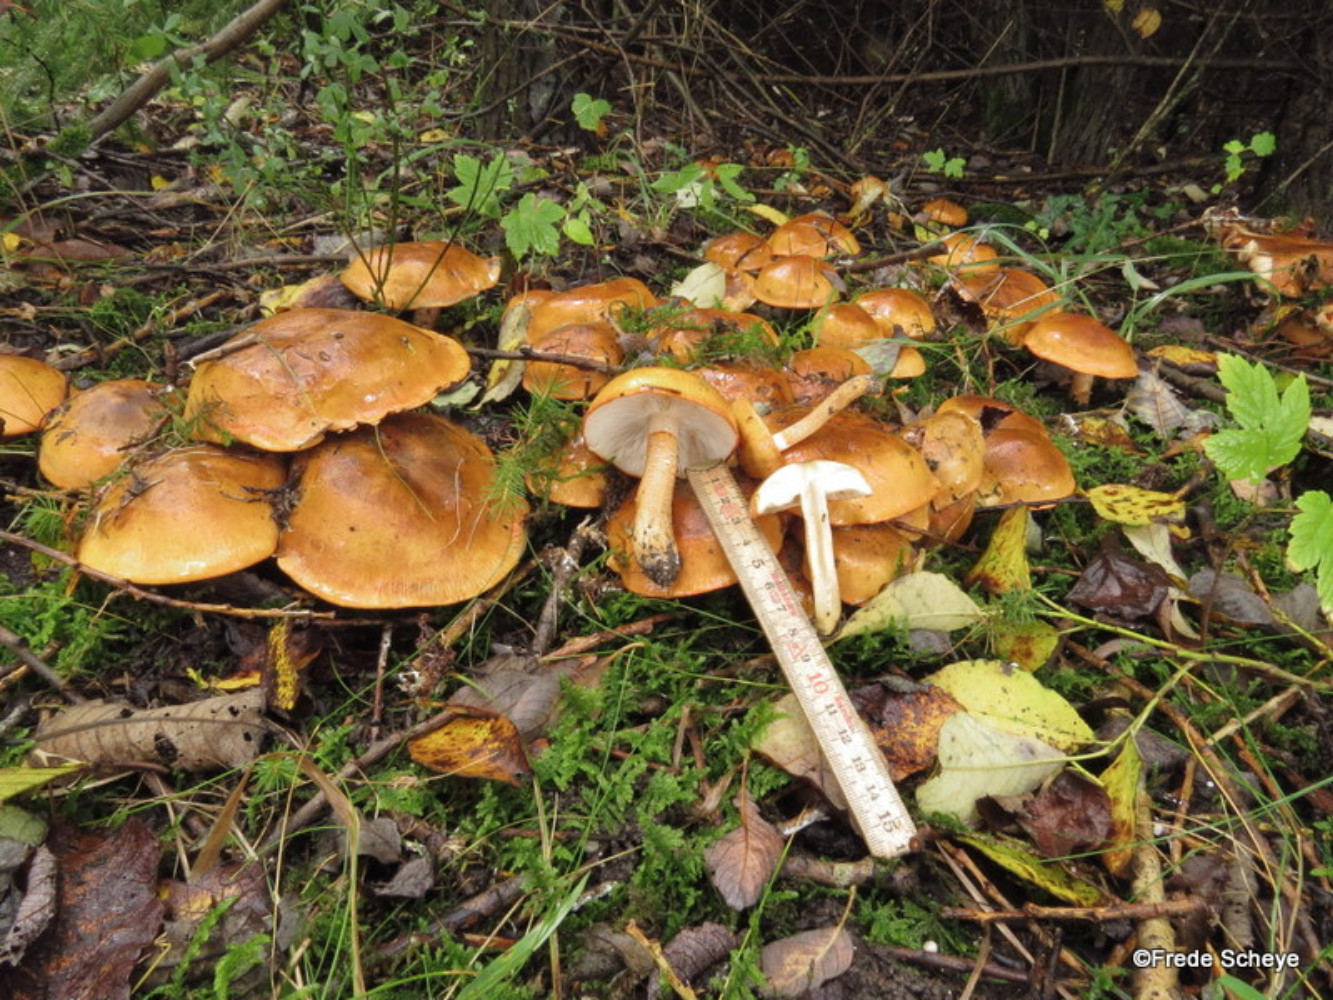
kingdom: Fungi
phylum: Basidiomycota
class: Agaricomycetes
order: Agaricales
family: Tricholomataceae
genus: Tricholoma
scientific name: Tricholoma aurantium
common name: orangegul ridderhat
